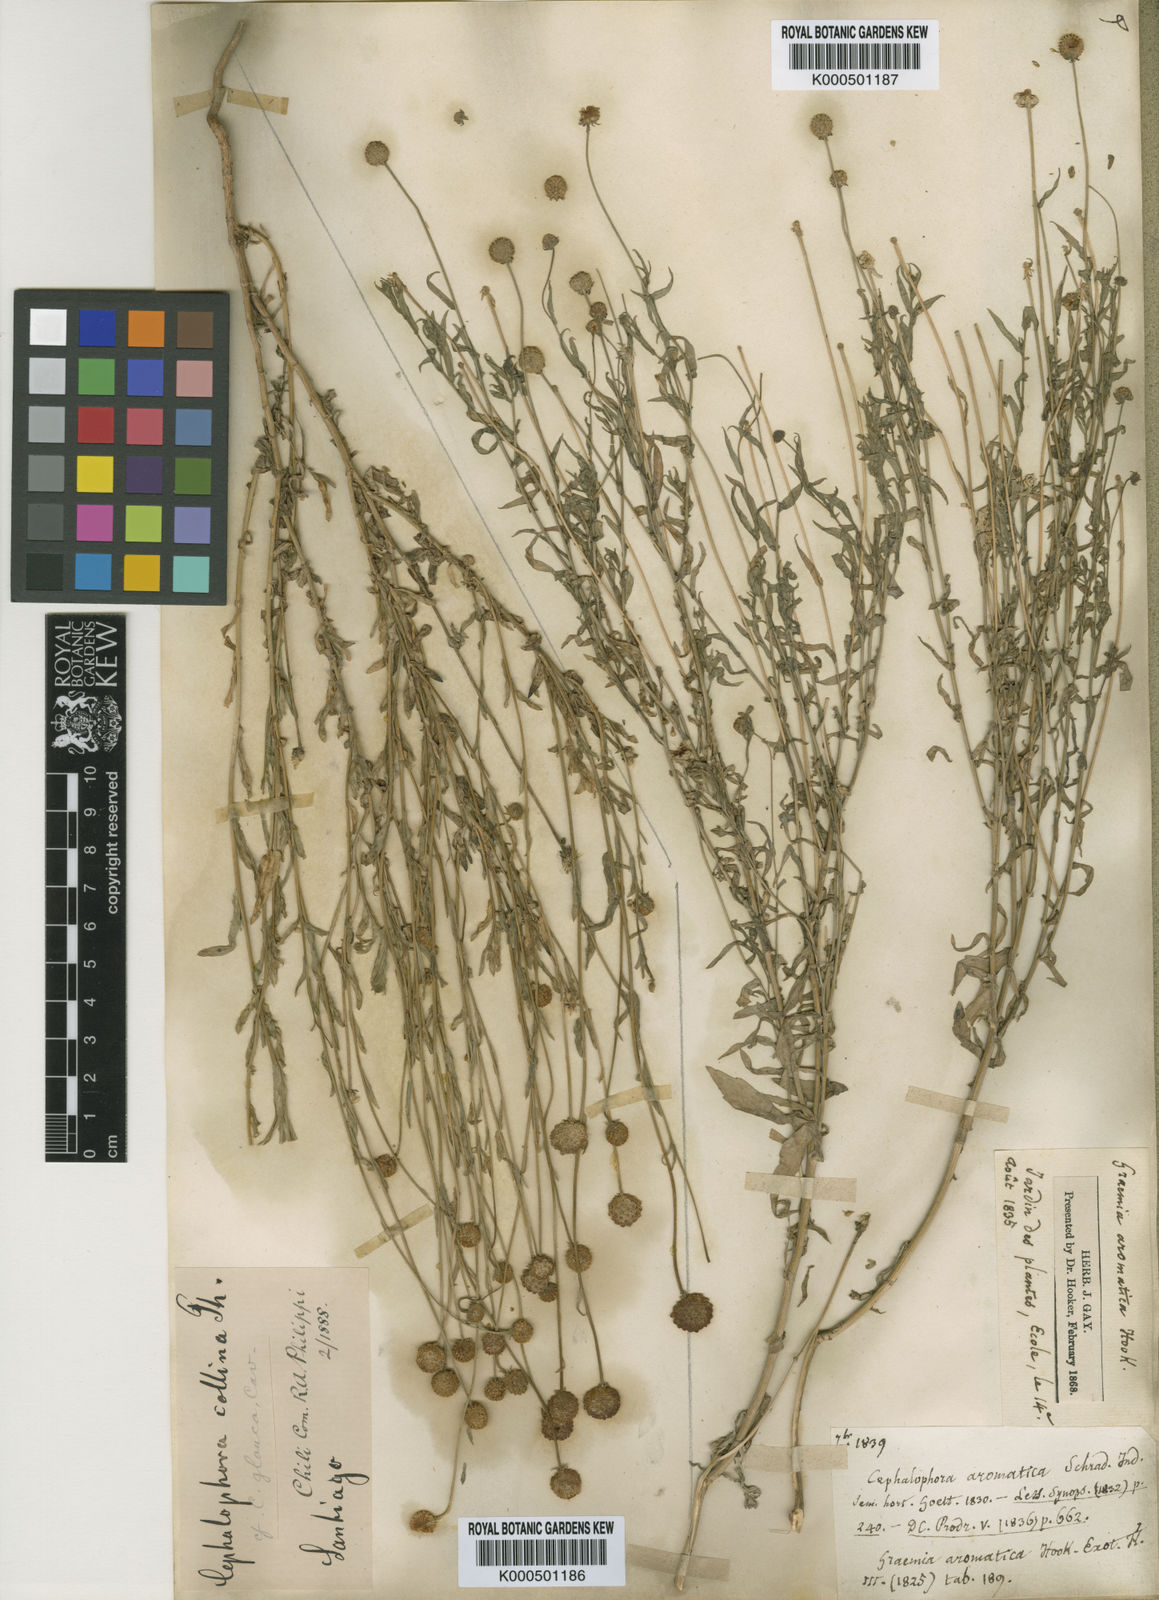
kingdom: Plantae
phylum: Tracheophyta
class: Magnoliopsida
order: Asterales
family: Asteraceae
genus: Helenium
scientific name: Helenium aromaticum
